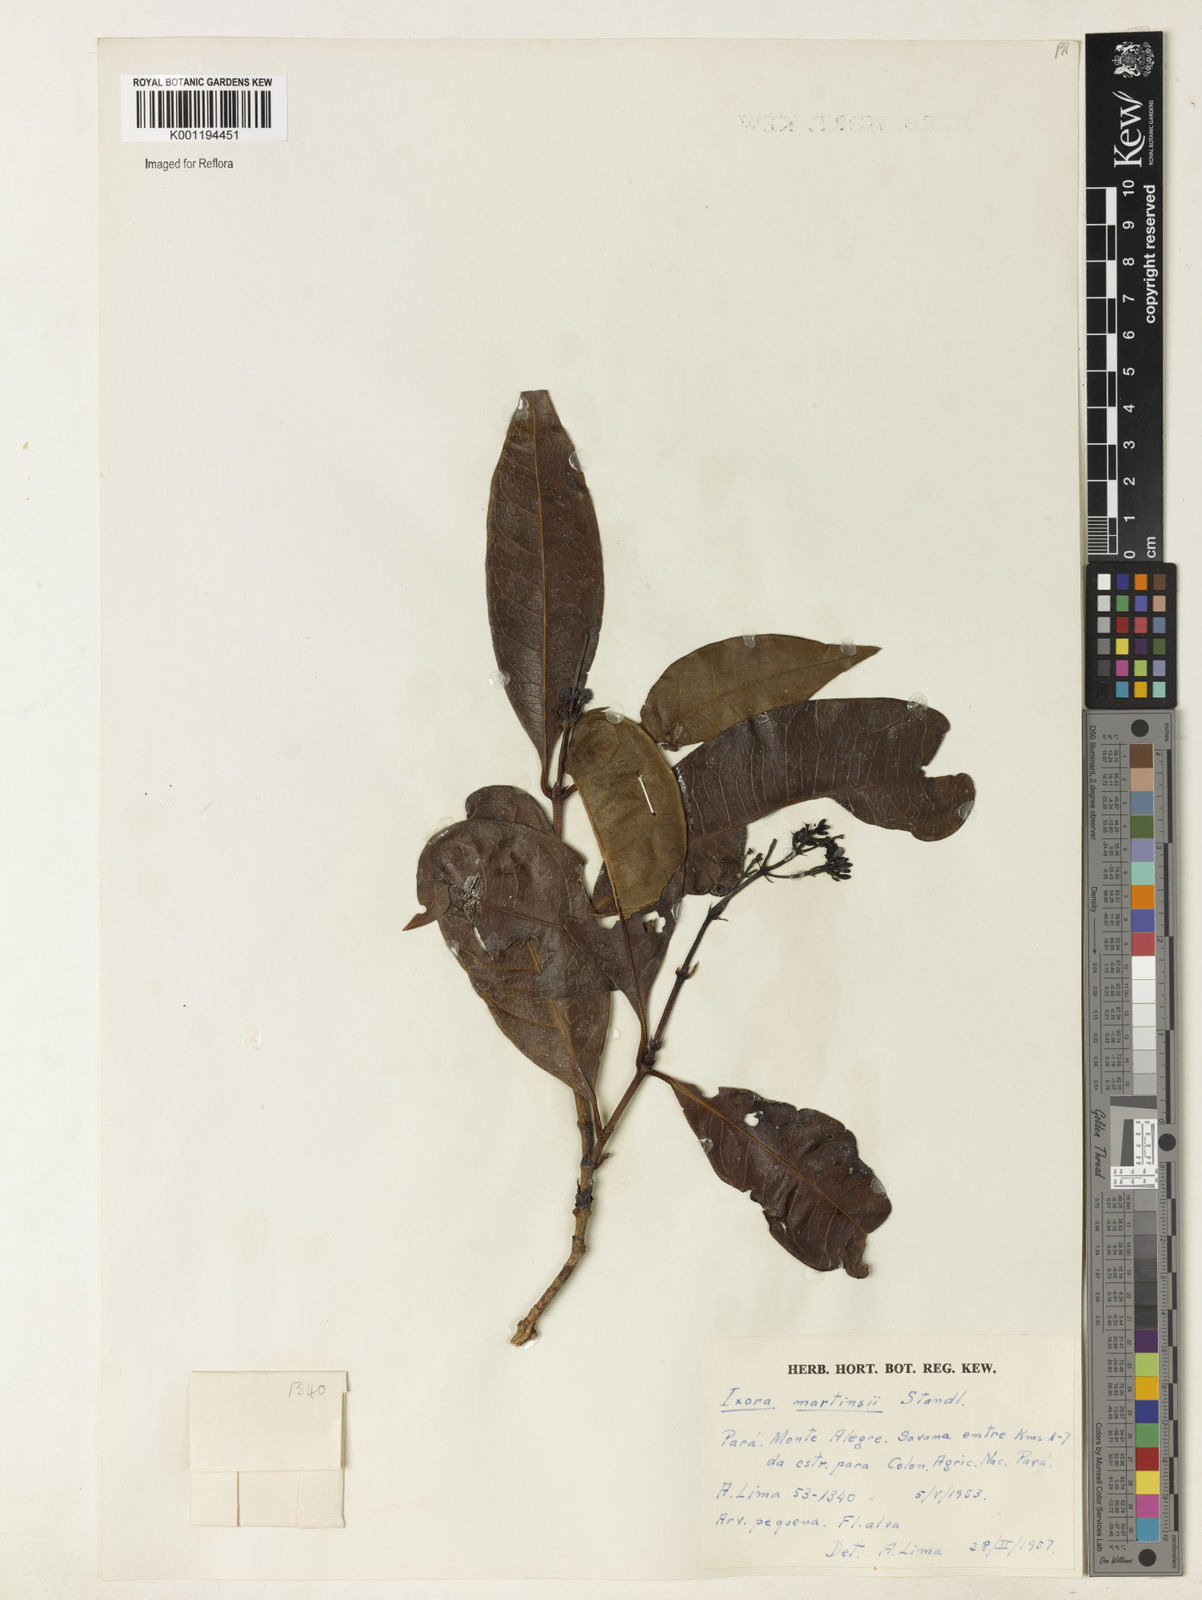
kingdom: Plantae
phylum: Tracheophyta
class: Magnoliopsida
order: Gentianales
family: Rubiaceae
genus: Ixora
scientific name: Ixora martinsii
